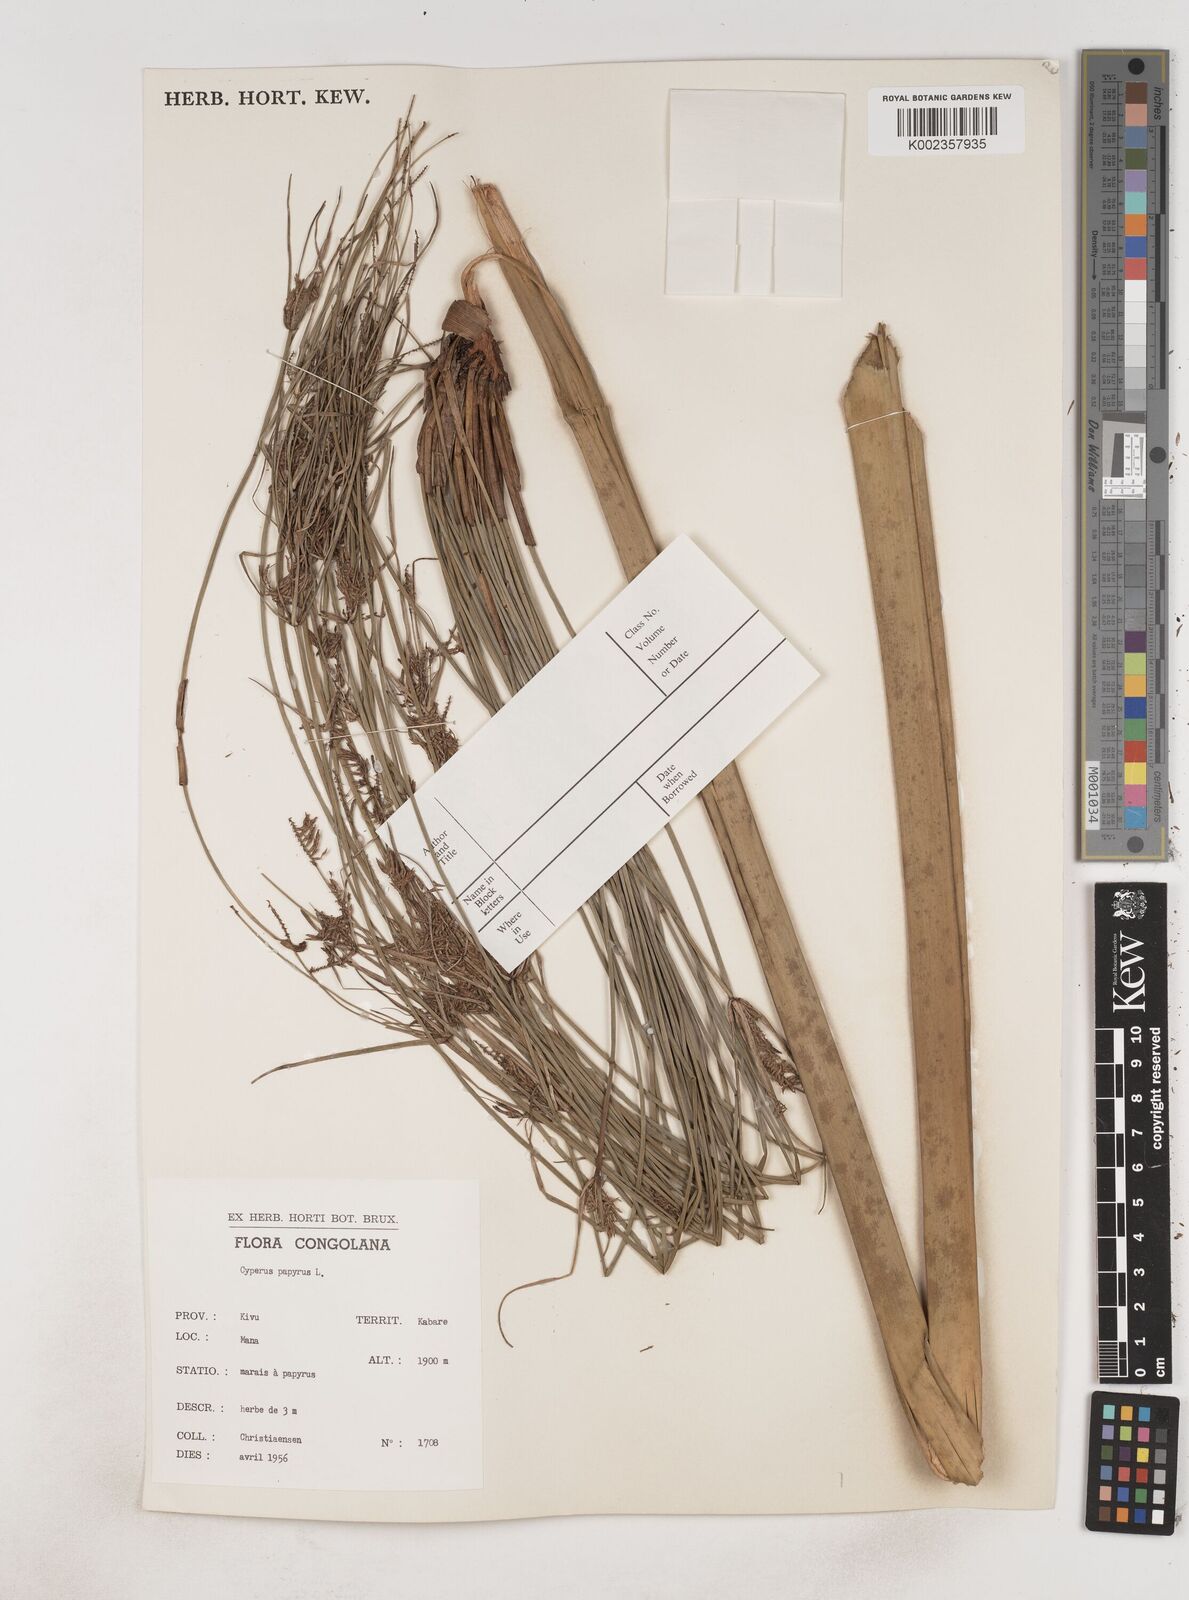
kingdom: Plantae
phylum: Tracheophyta
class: Liliopsida
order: Poales
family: Cyperaceae
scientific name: Cyperaceae
